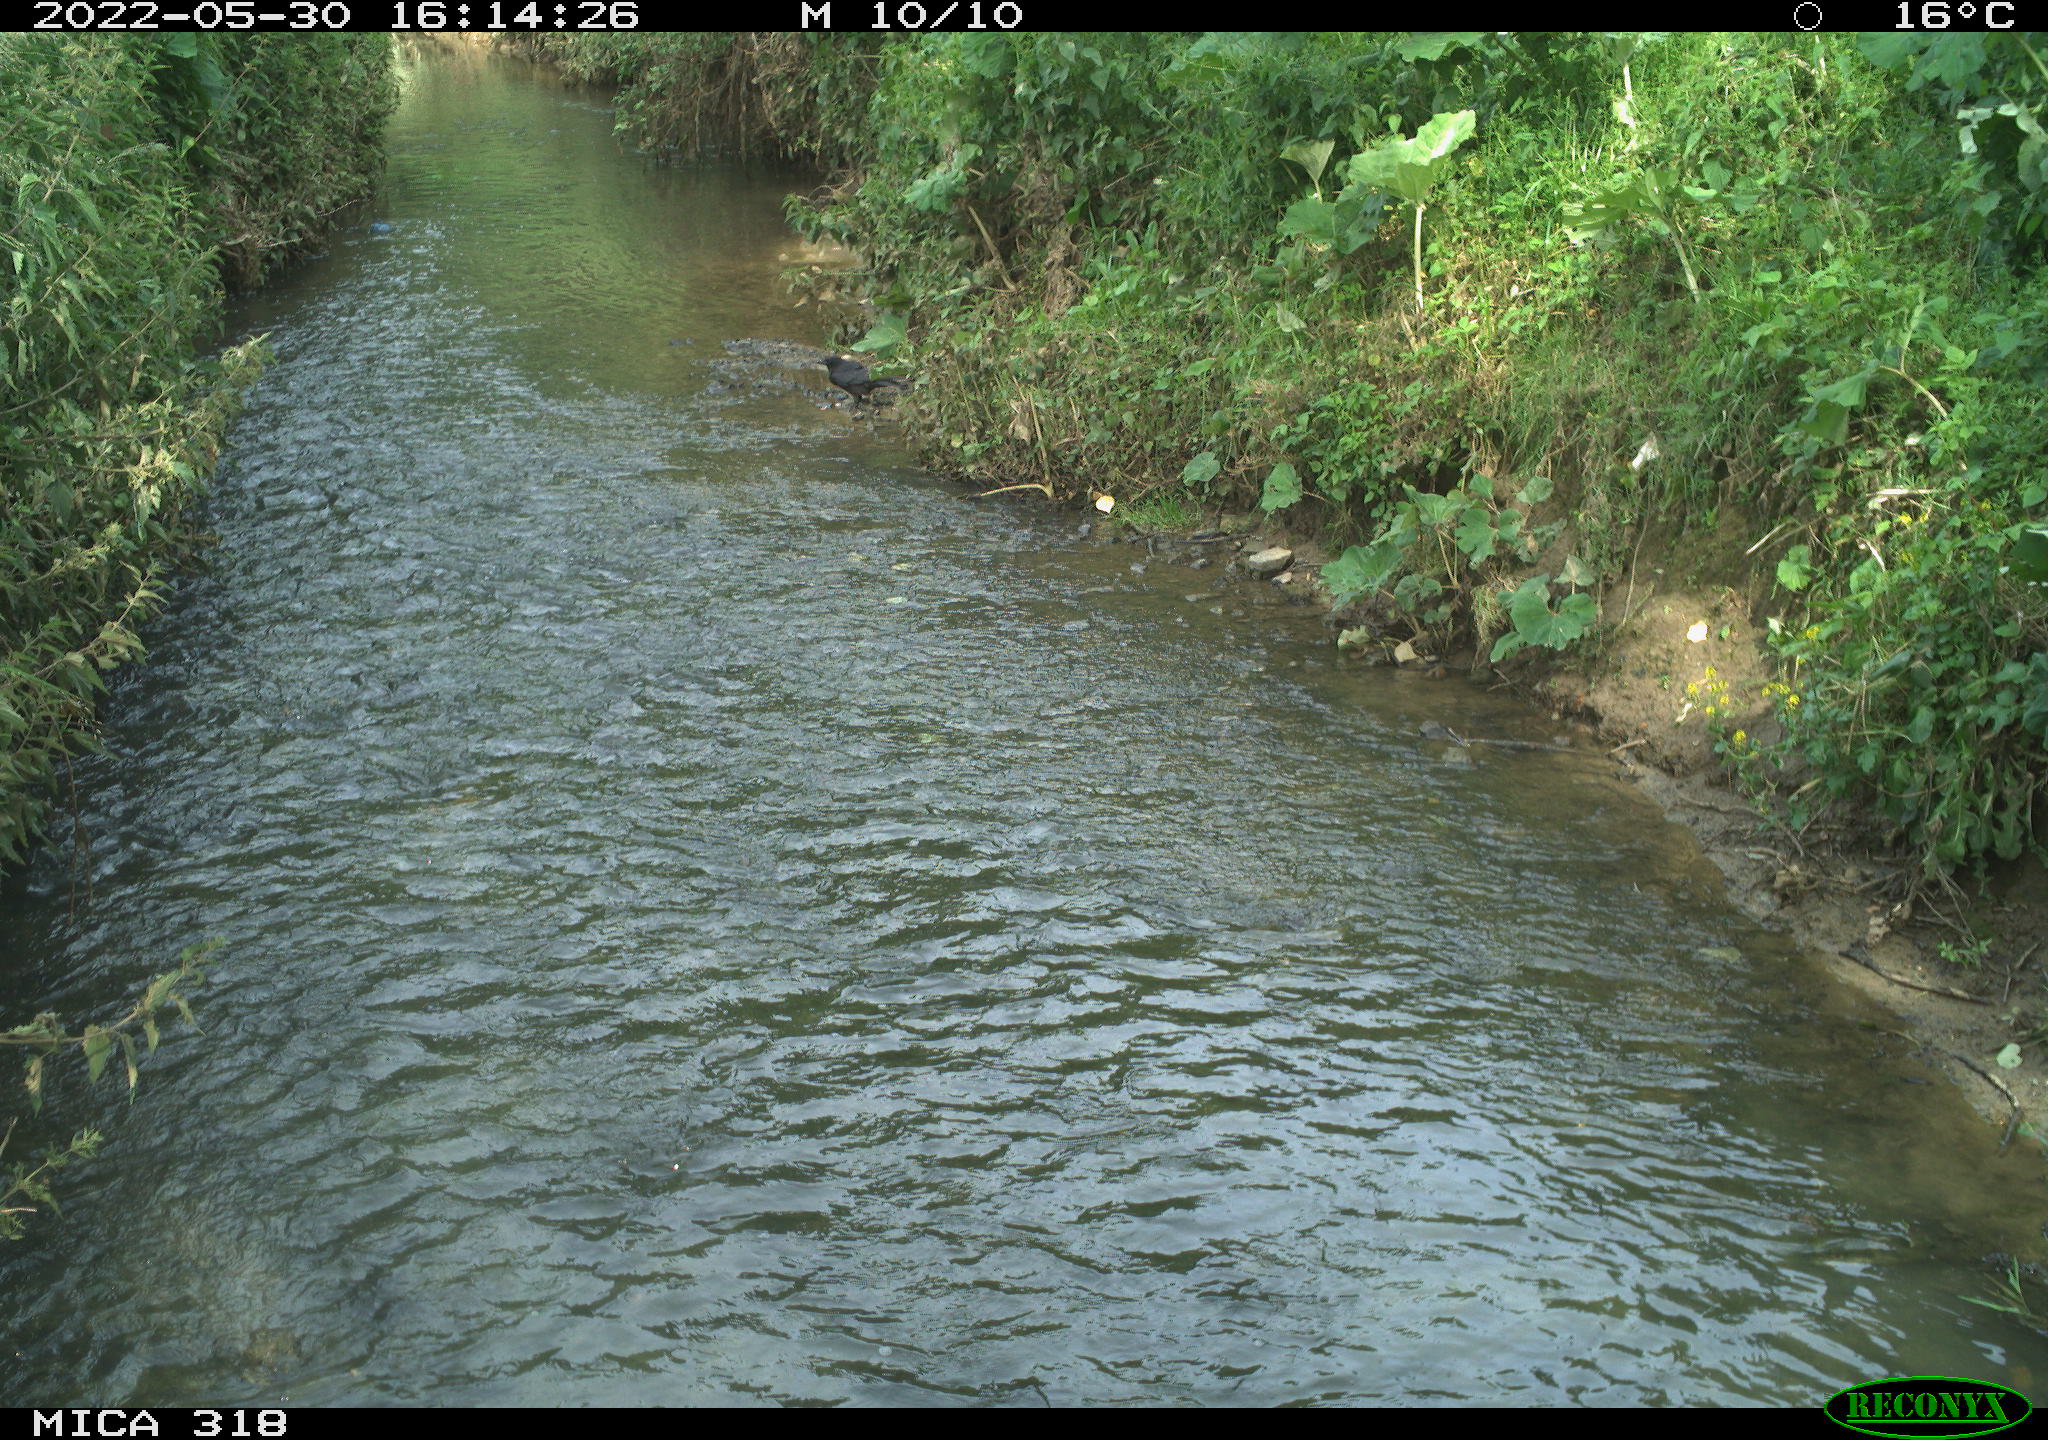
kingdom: Animalia
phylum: Chordata
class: Aves
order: Passeriformes
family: Corvidae
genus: Corvus
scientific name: Corvus corone
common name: Carrion crow
